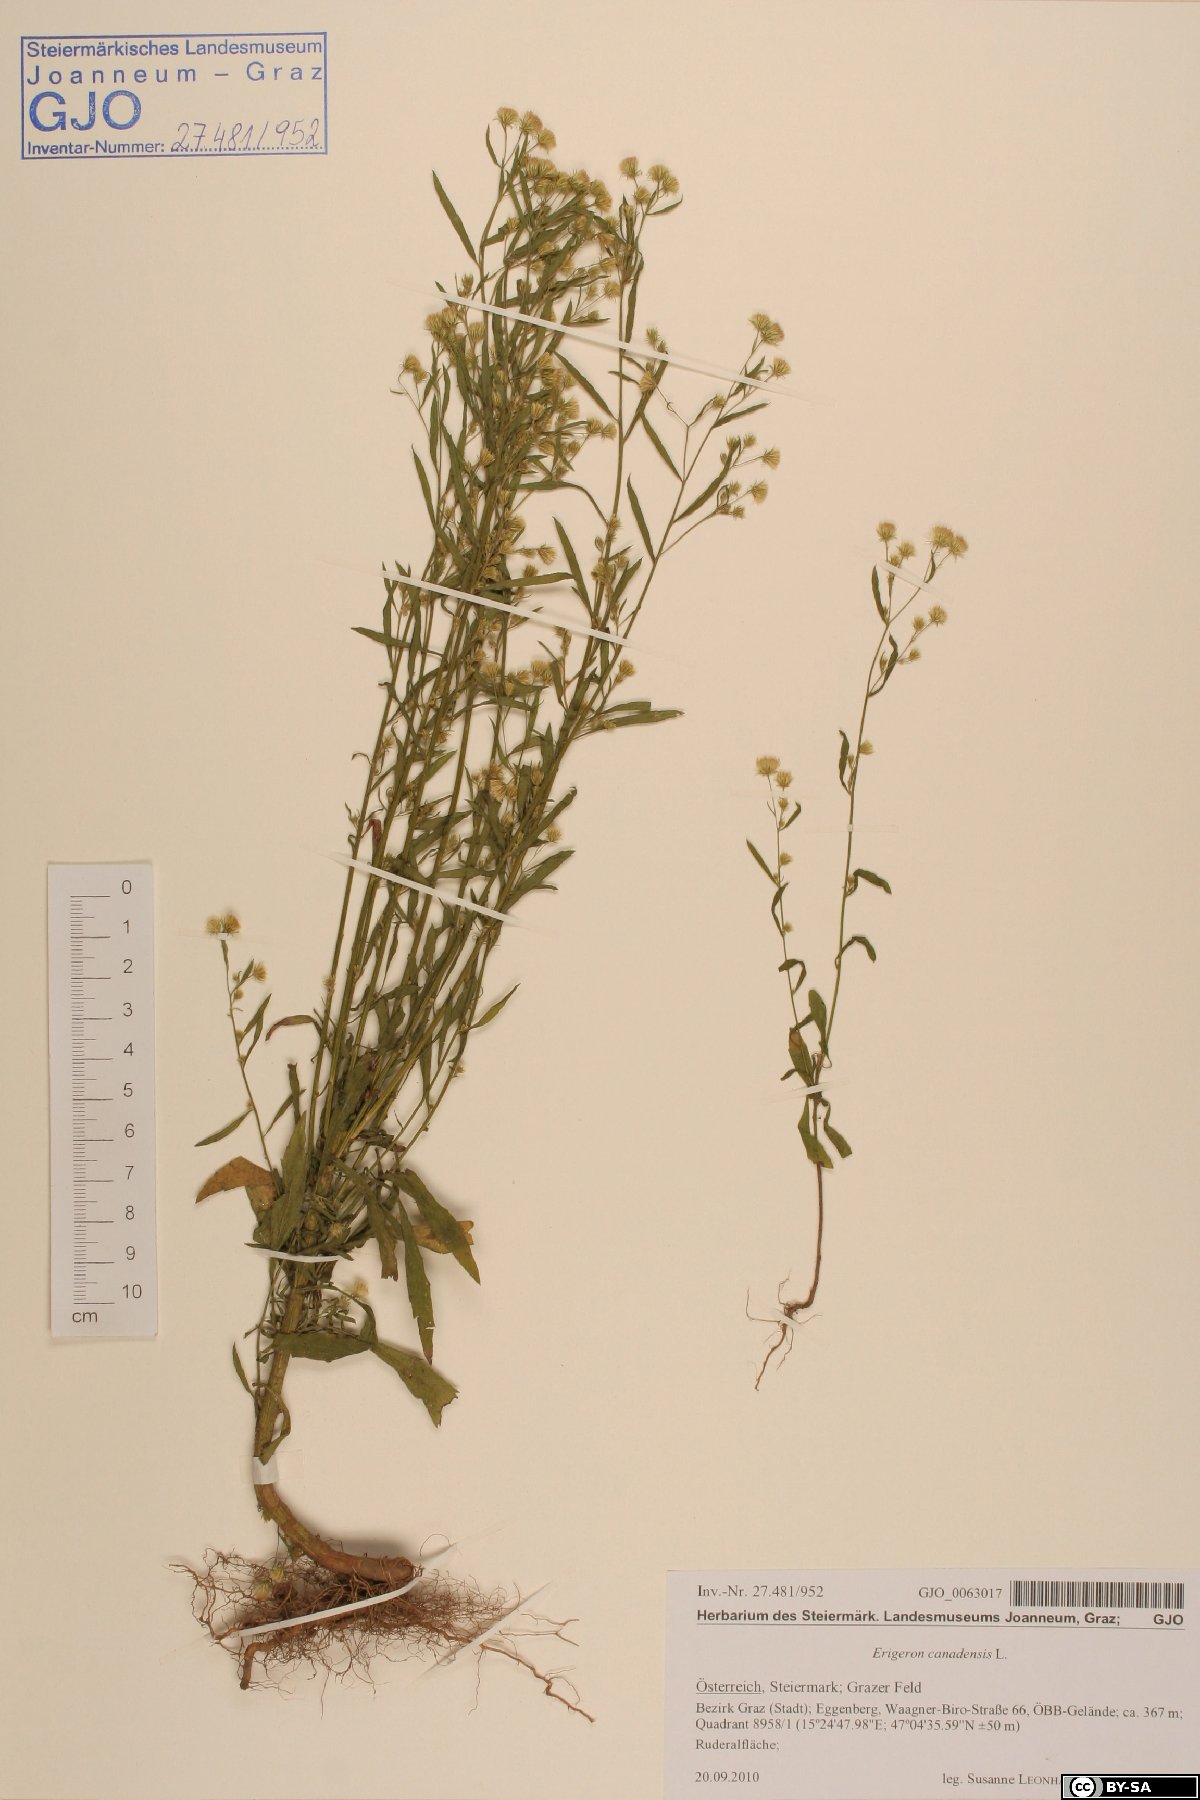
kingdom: Fungi
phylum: Basidiomycota
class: Agaricomycetes
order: Polyporales
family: Polyporaceae
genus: Trametes
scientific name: Trametes trogii
